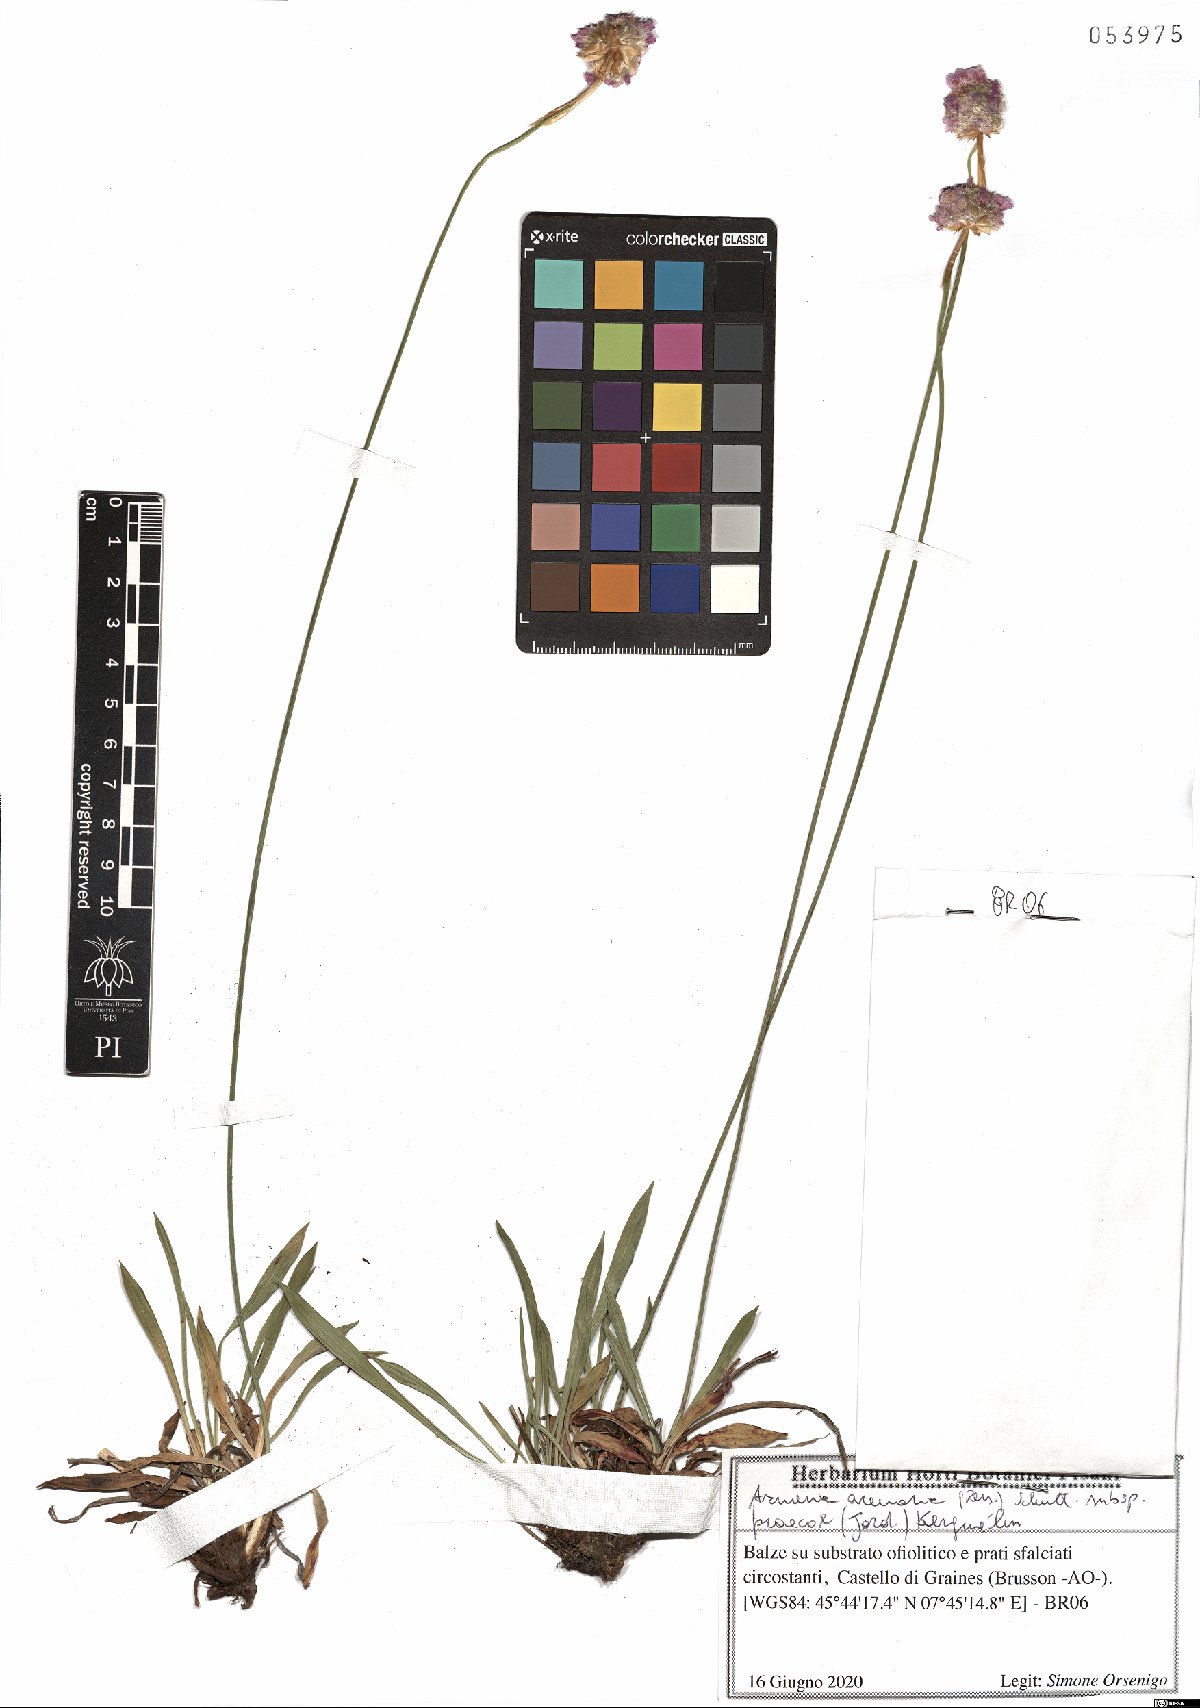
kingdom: Plantae
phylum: Tracheophyta
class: Magnoliopsida
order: Caryophyllales
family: Plumbaginaceae
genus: Armeria
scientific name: Armeria arenaria
